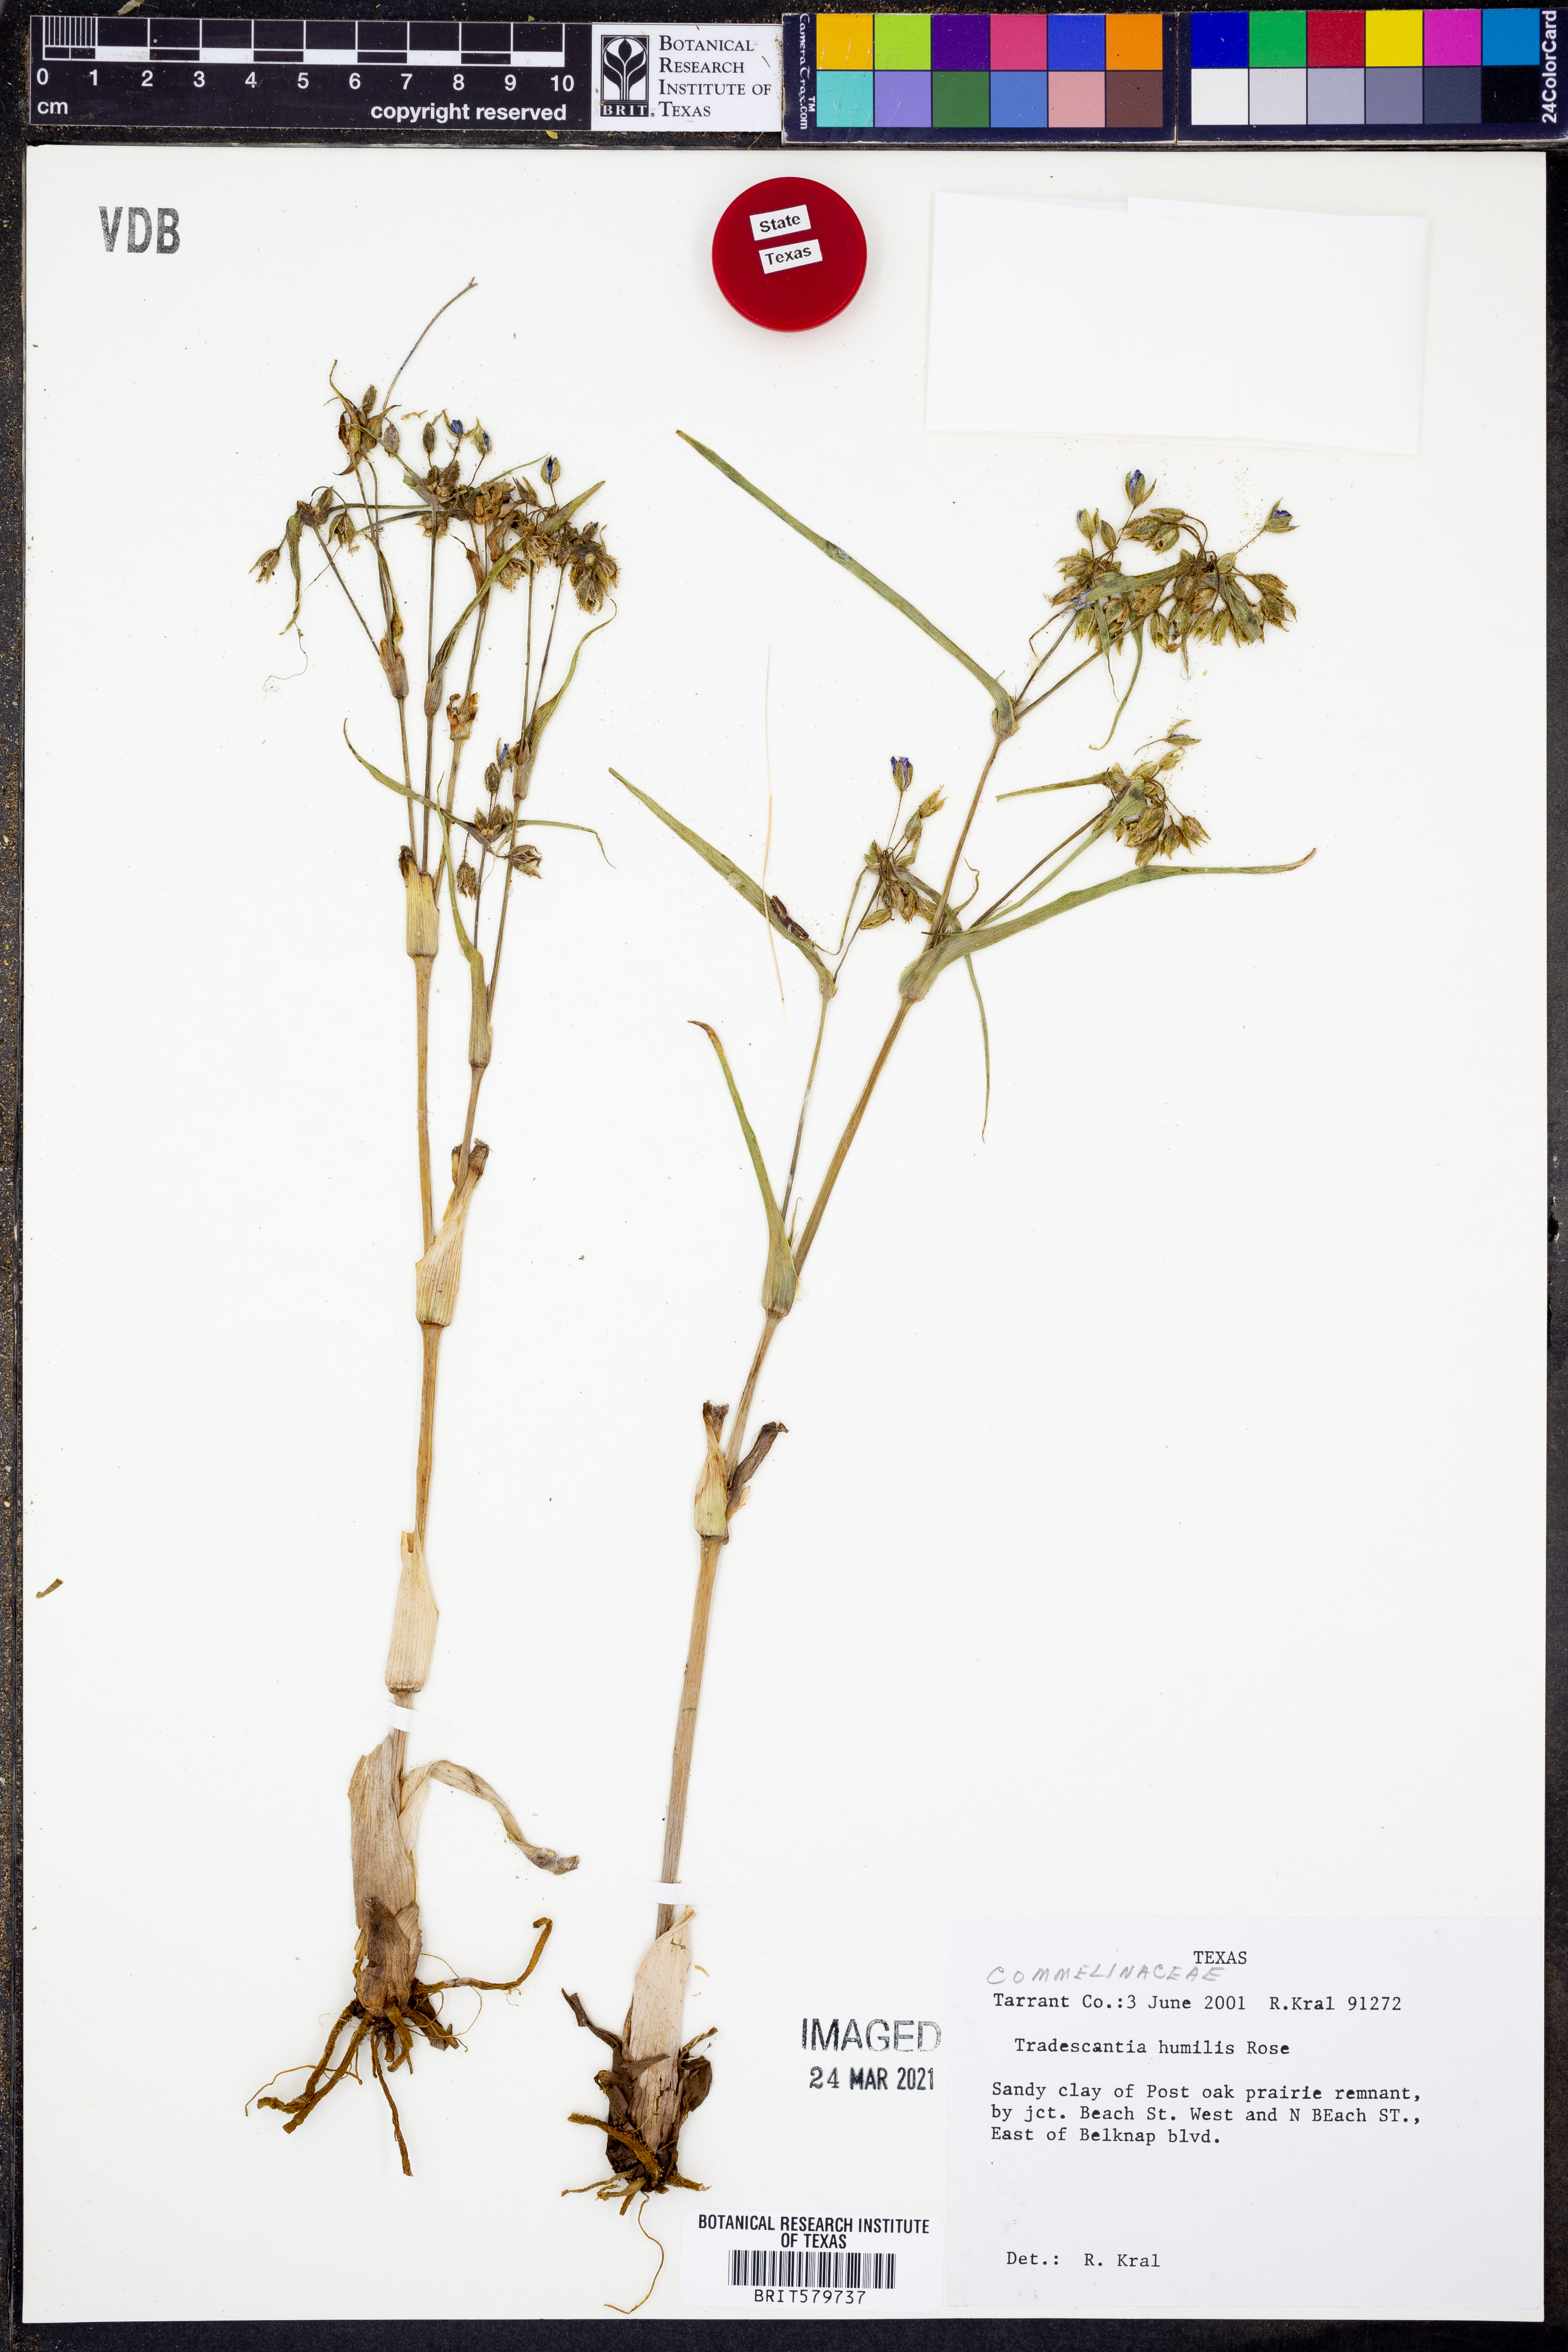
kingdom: Plantae
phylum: Tracheophyta
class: Liliopsida
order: Commelinales
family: Commelinaceae
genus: Tradescantia
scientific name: Tradescantia humilis
